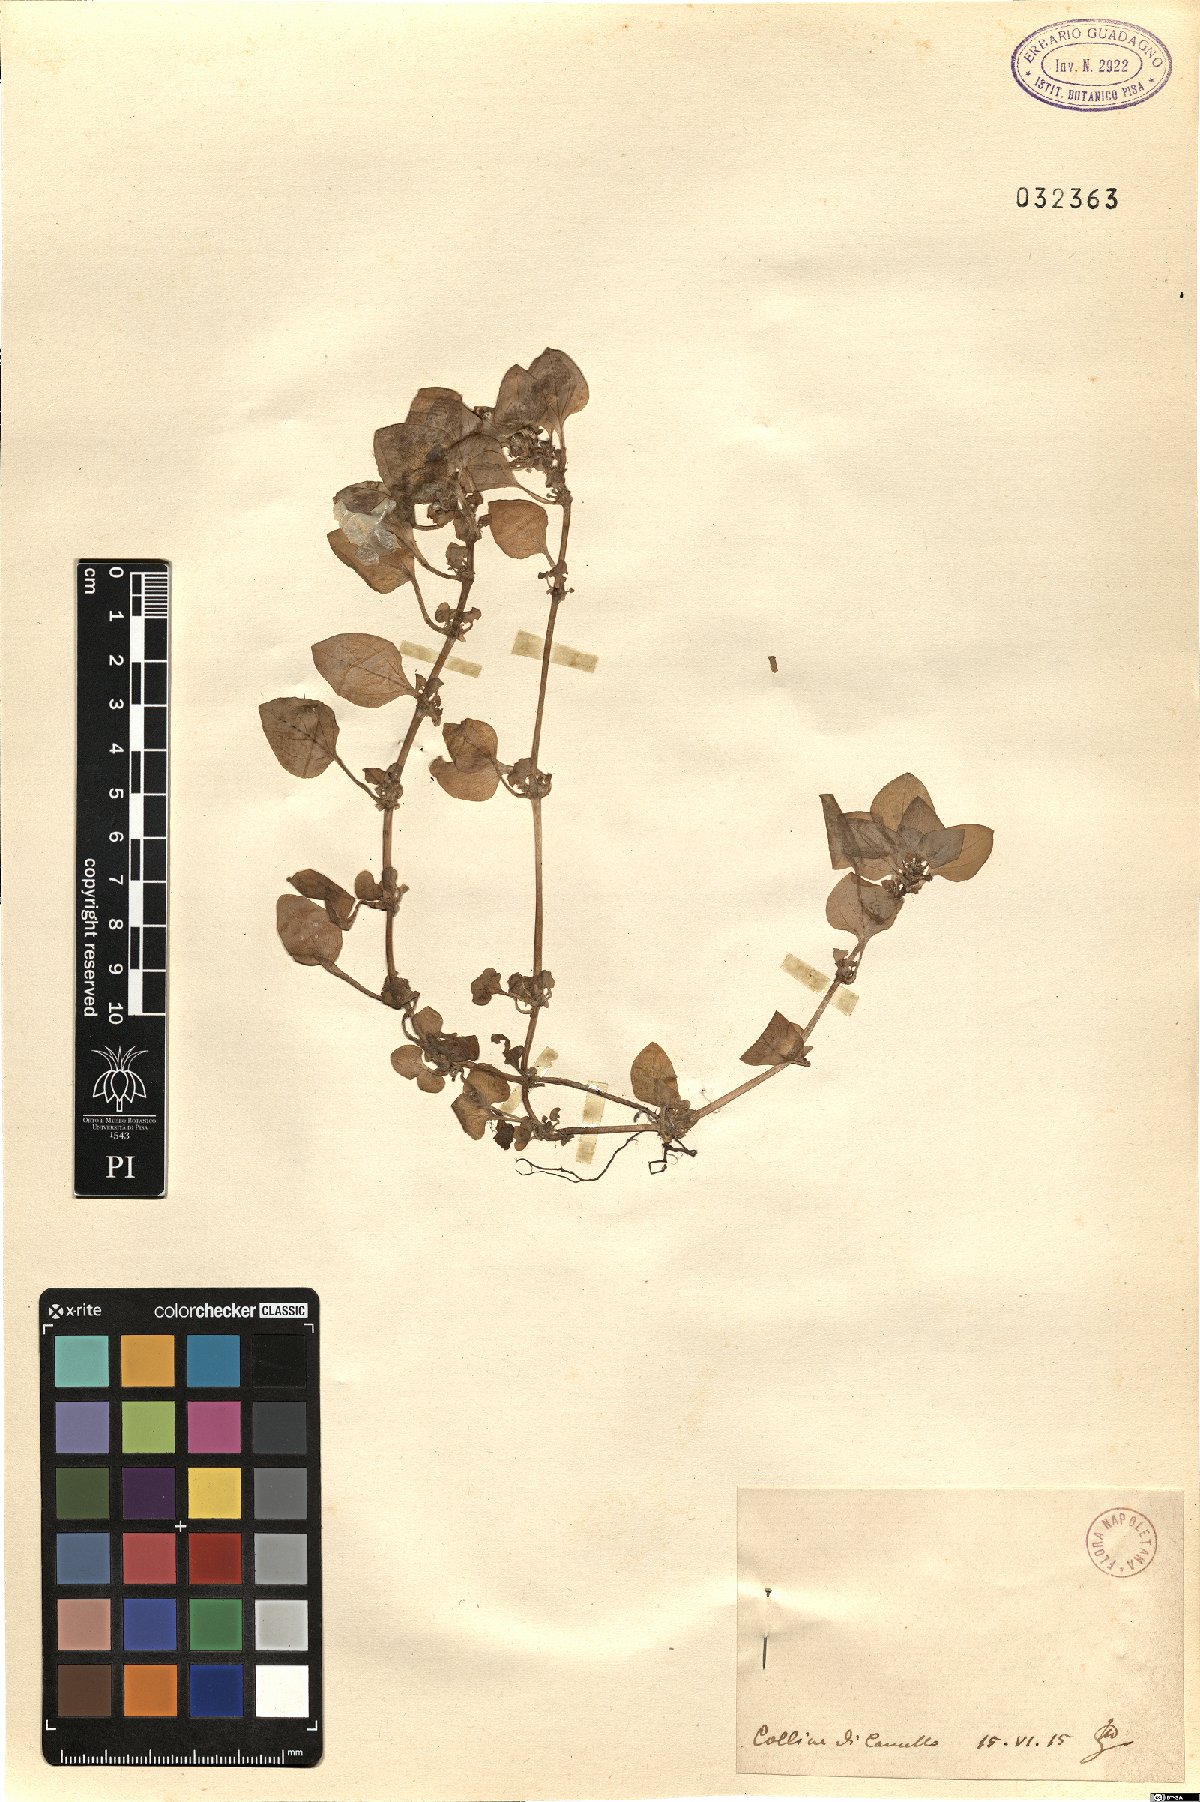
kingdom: Plantae
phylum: Tracheophyta
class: Magnoliopsida
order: Gentianales
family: Rubiaceae
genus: Theligonum
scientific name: Theligonum
